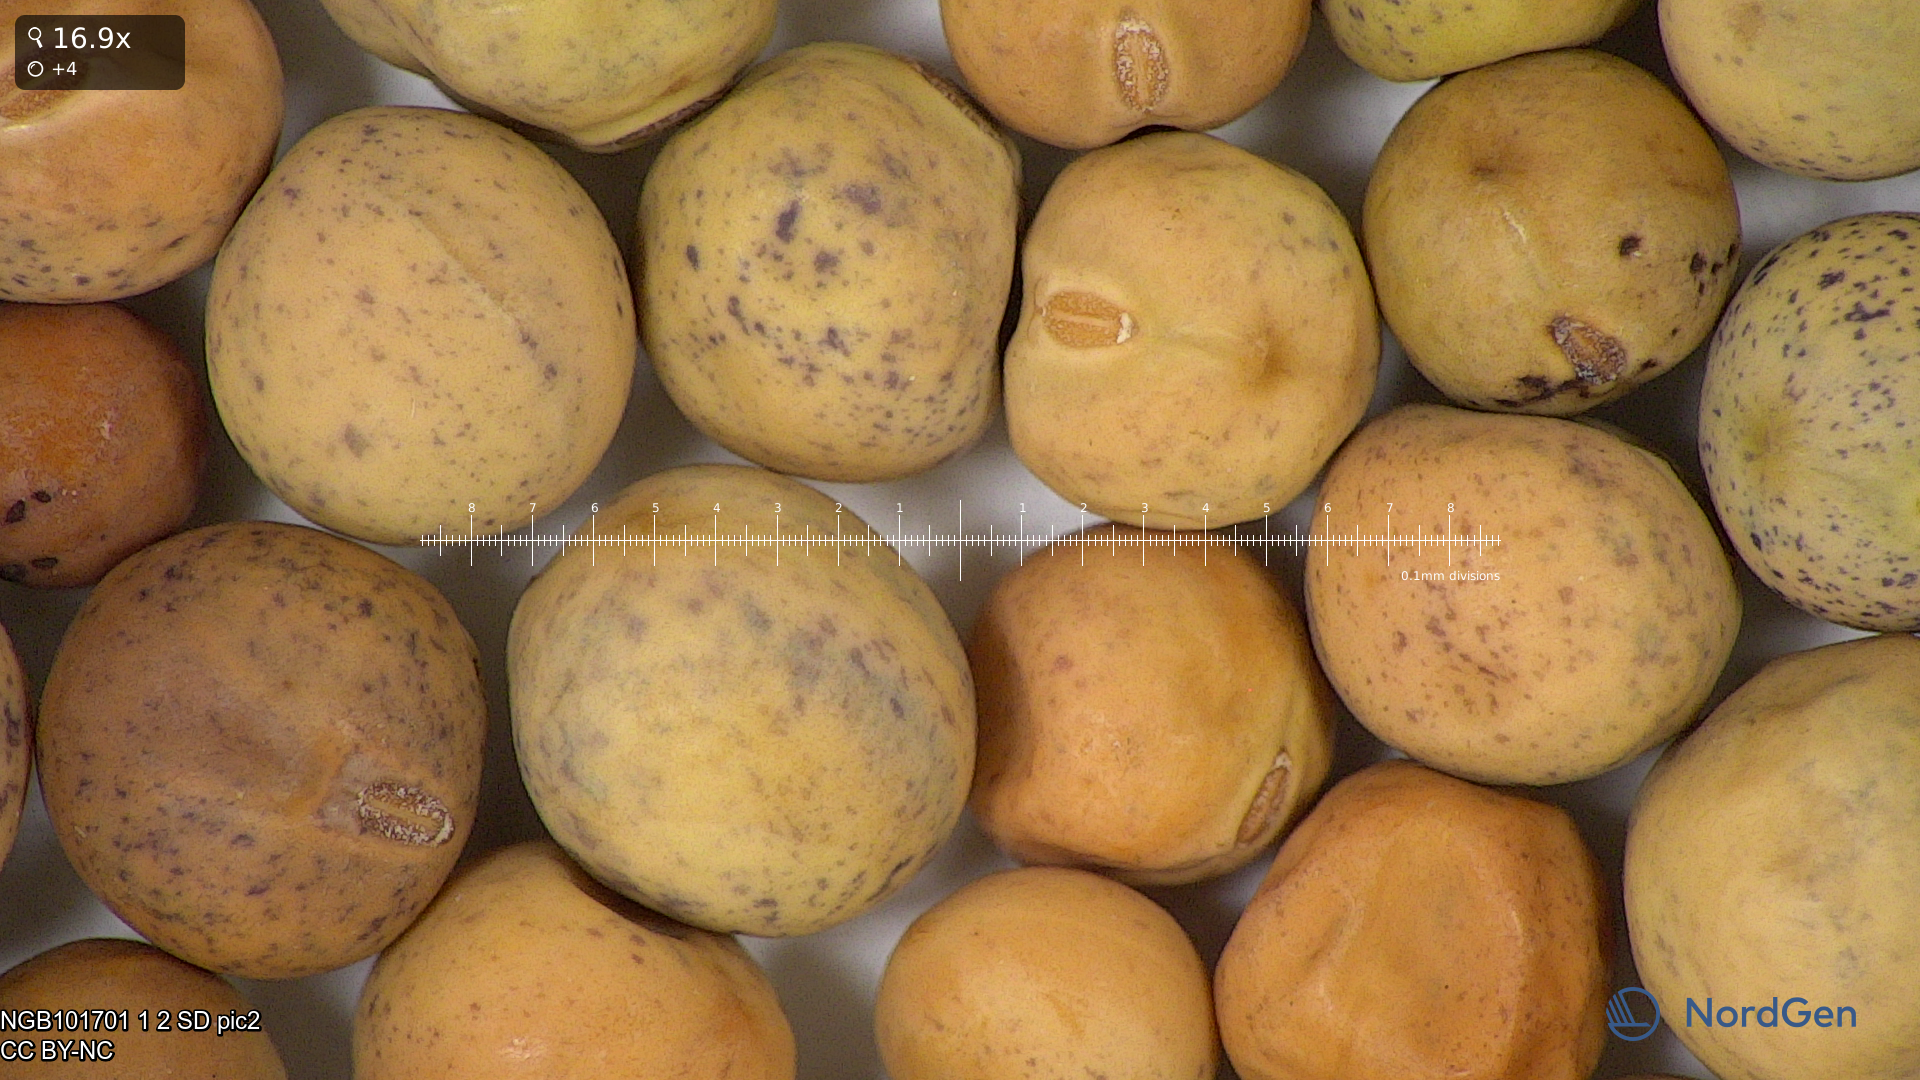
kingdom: Plantae
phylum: Tracheophyta
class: Magnoliopsida
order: Fabales
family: Fabaceae
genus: Lathyrus
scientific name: Lathyrus oleraceus
